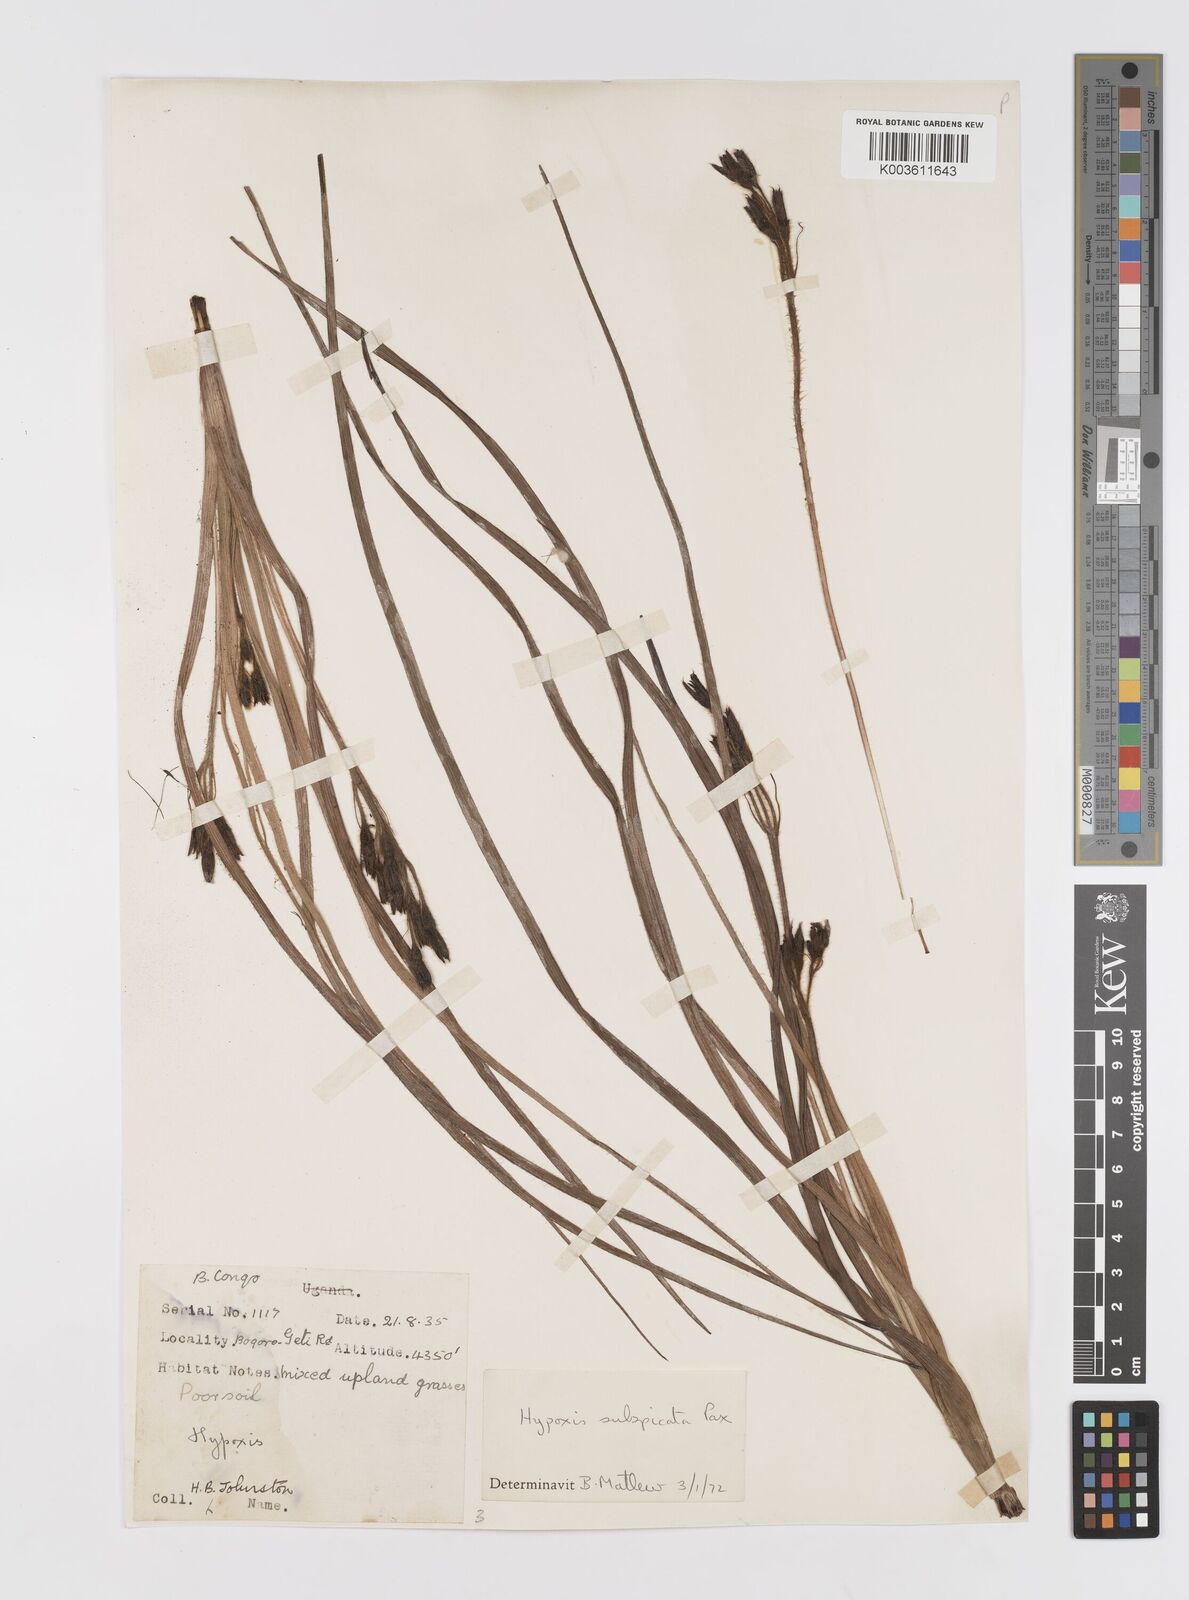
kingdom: Plantae
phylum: Tracheophyta
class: Liliopsida
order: Asparagales
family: Hypoxidaceae
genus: Hypoxis
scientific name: Hypoxis polystachya
